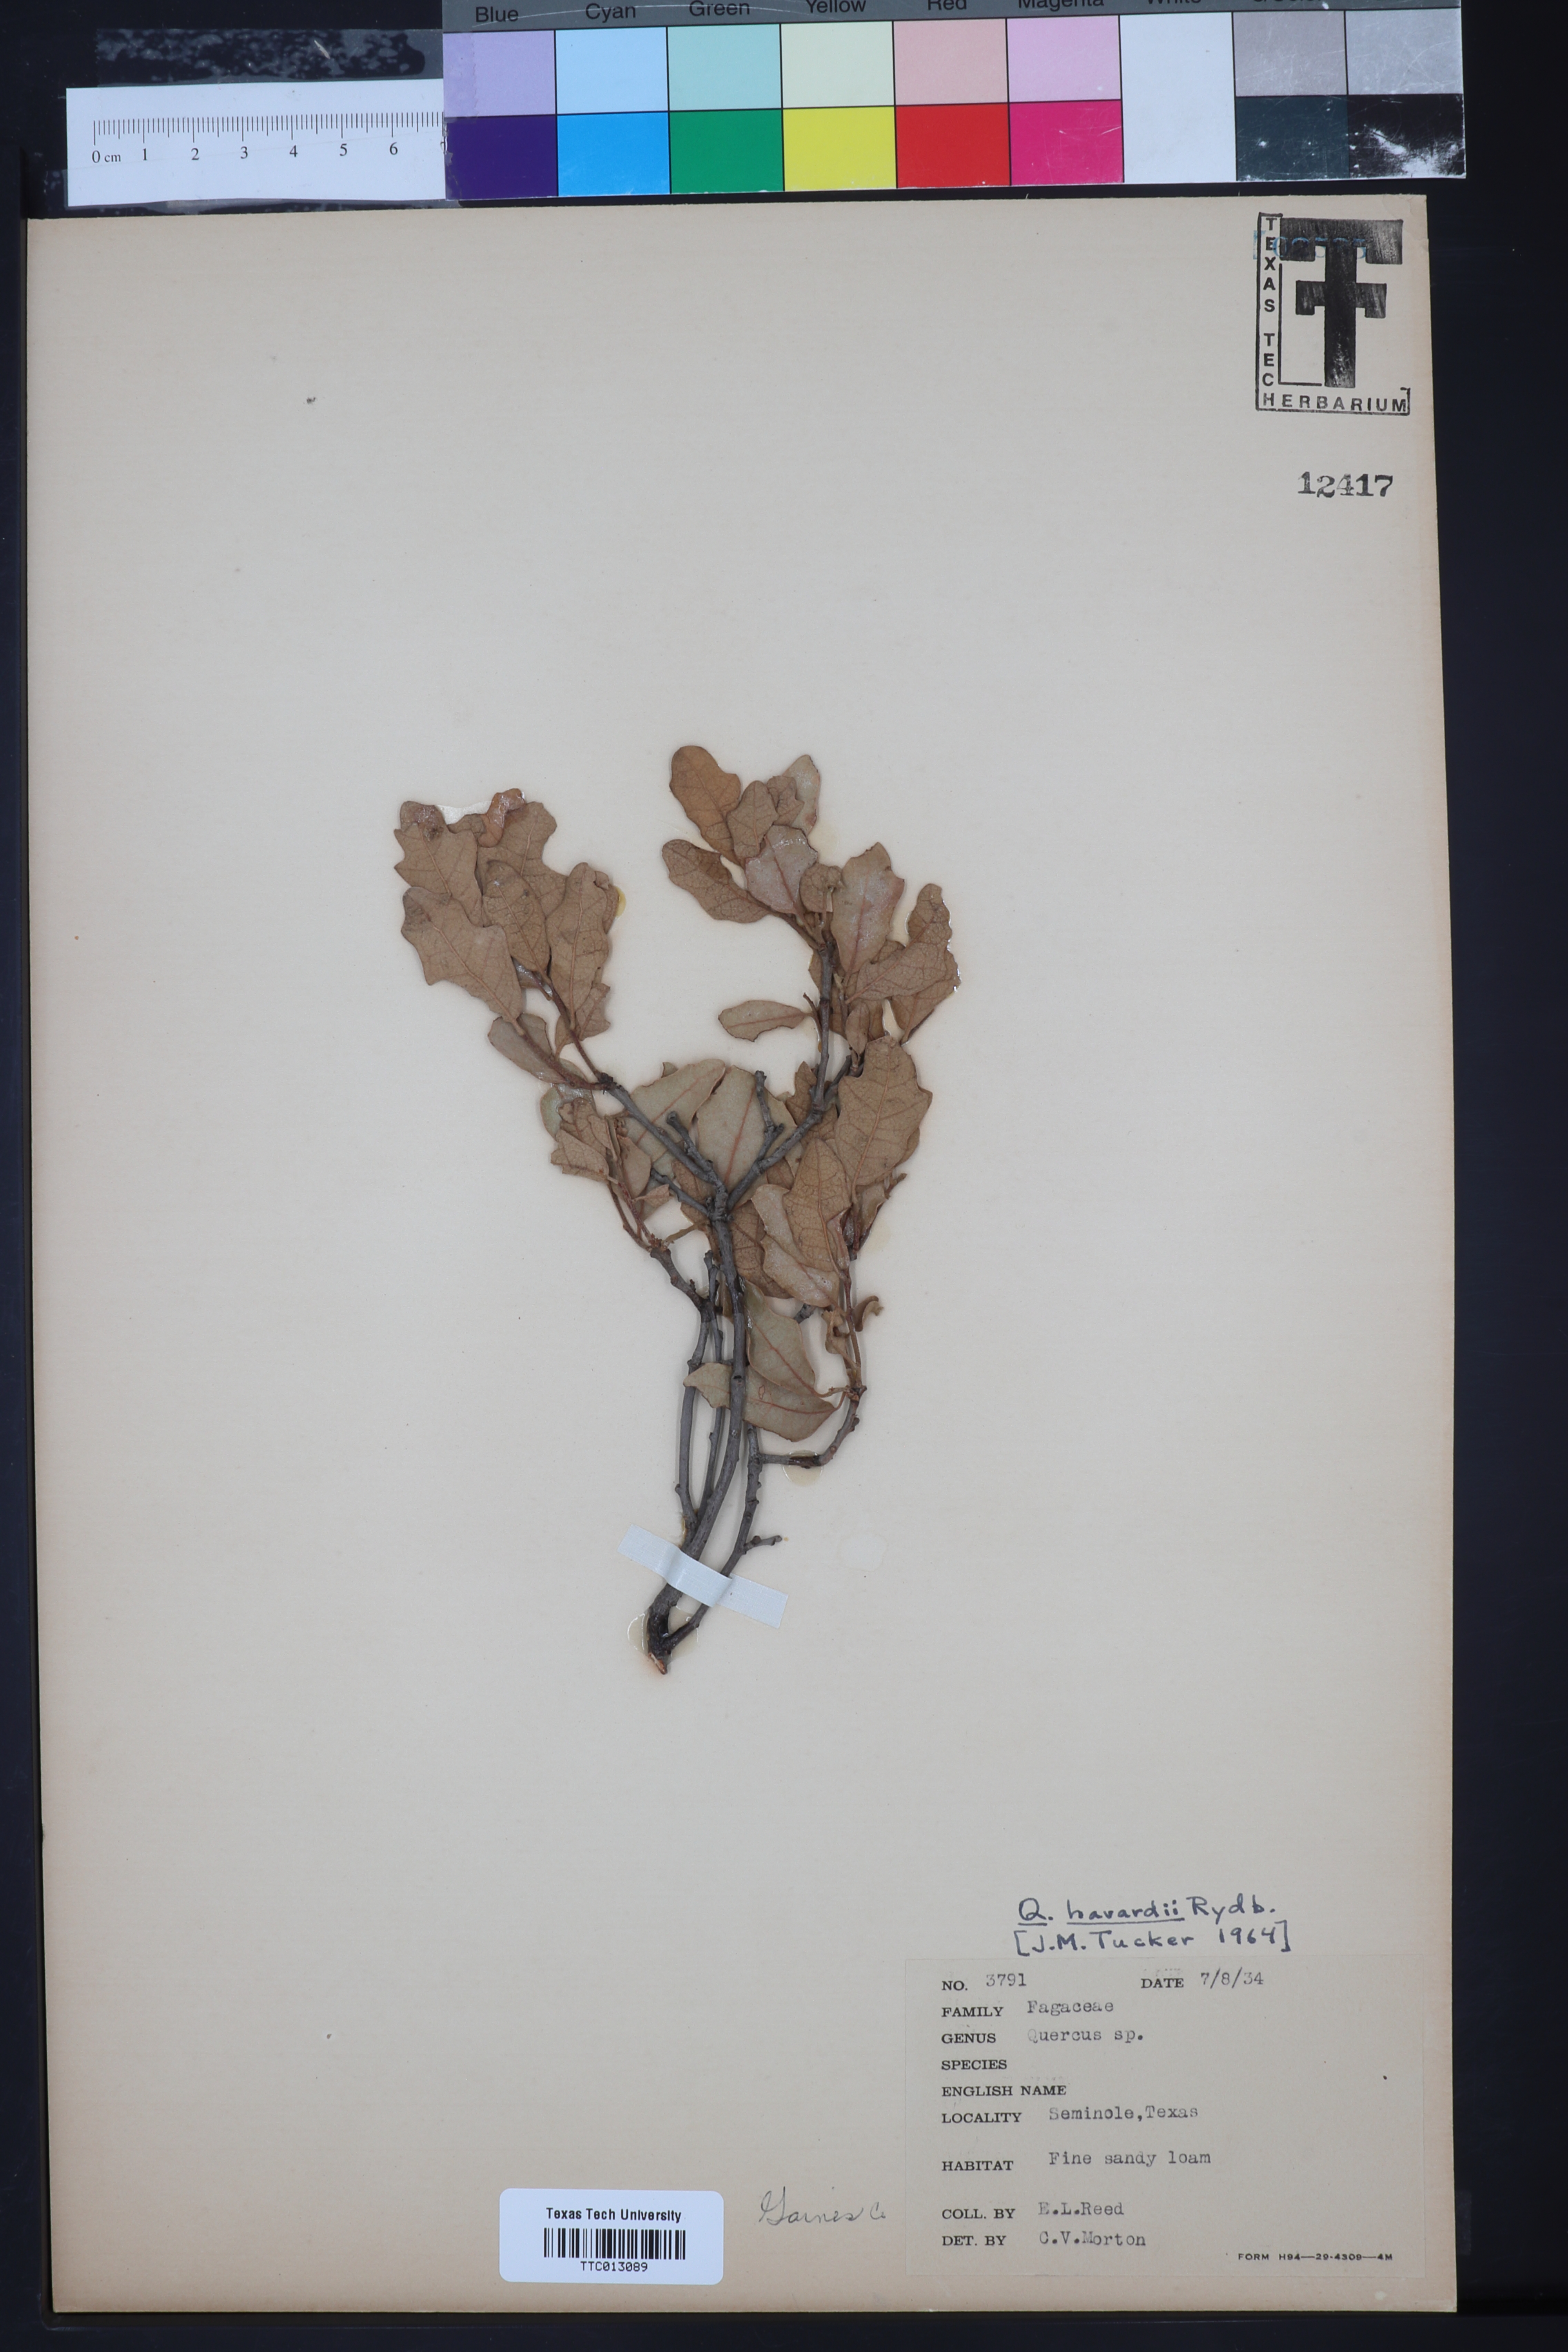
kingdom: Plantae
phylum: Tracheophyta
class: Magnoliopsida
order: Fagales
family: Fagaceae
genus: Quercus
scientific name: Quercus havardii
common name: Shinnery oak
